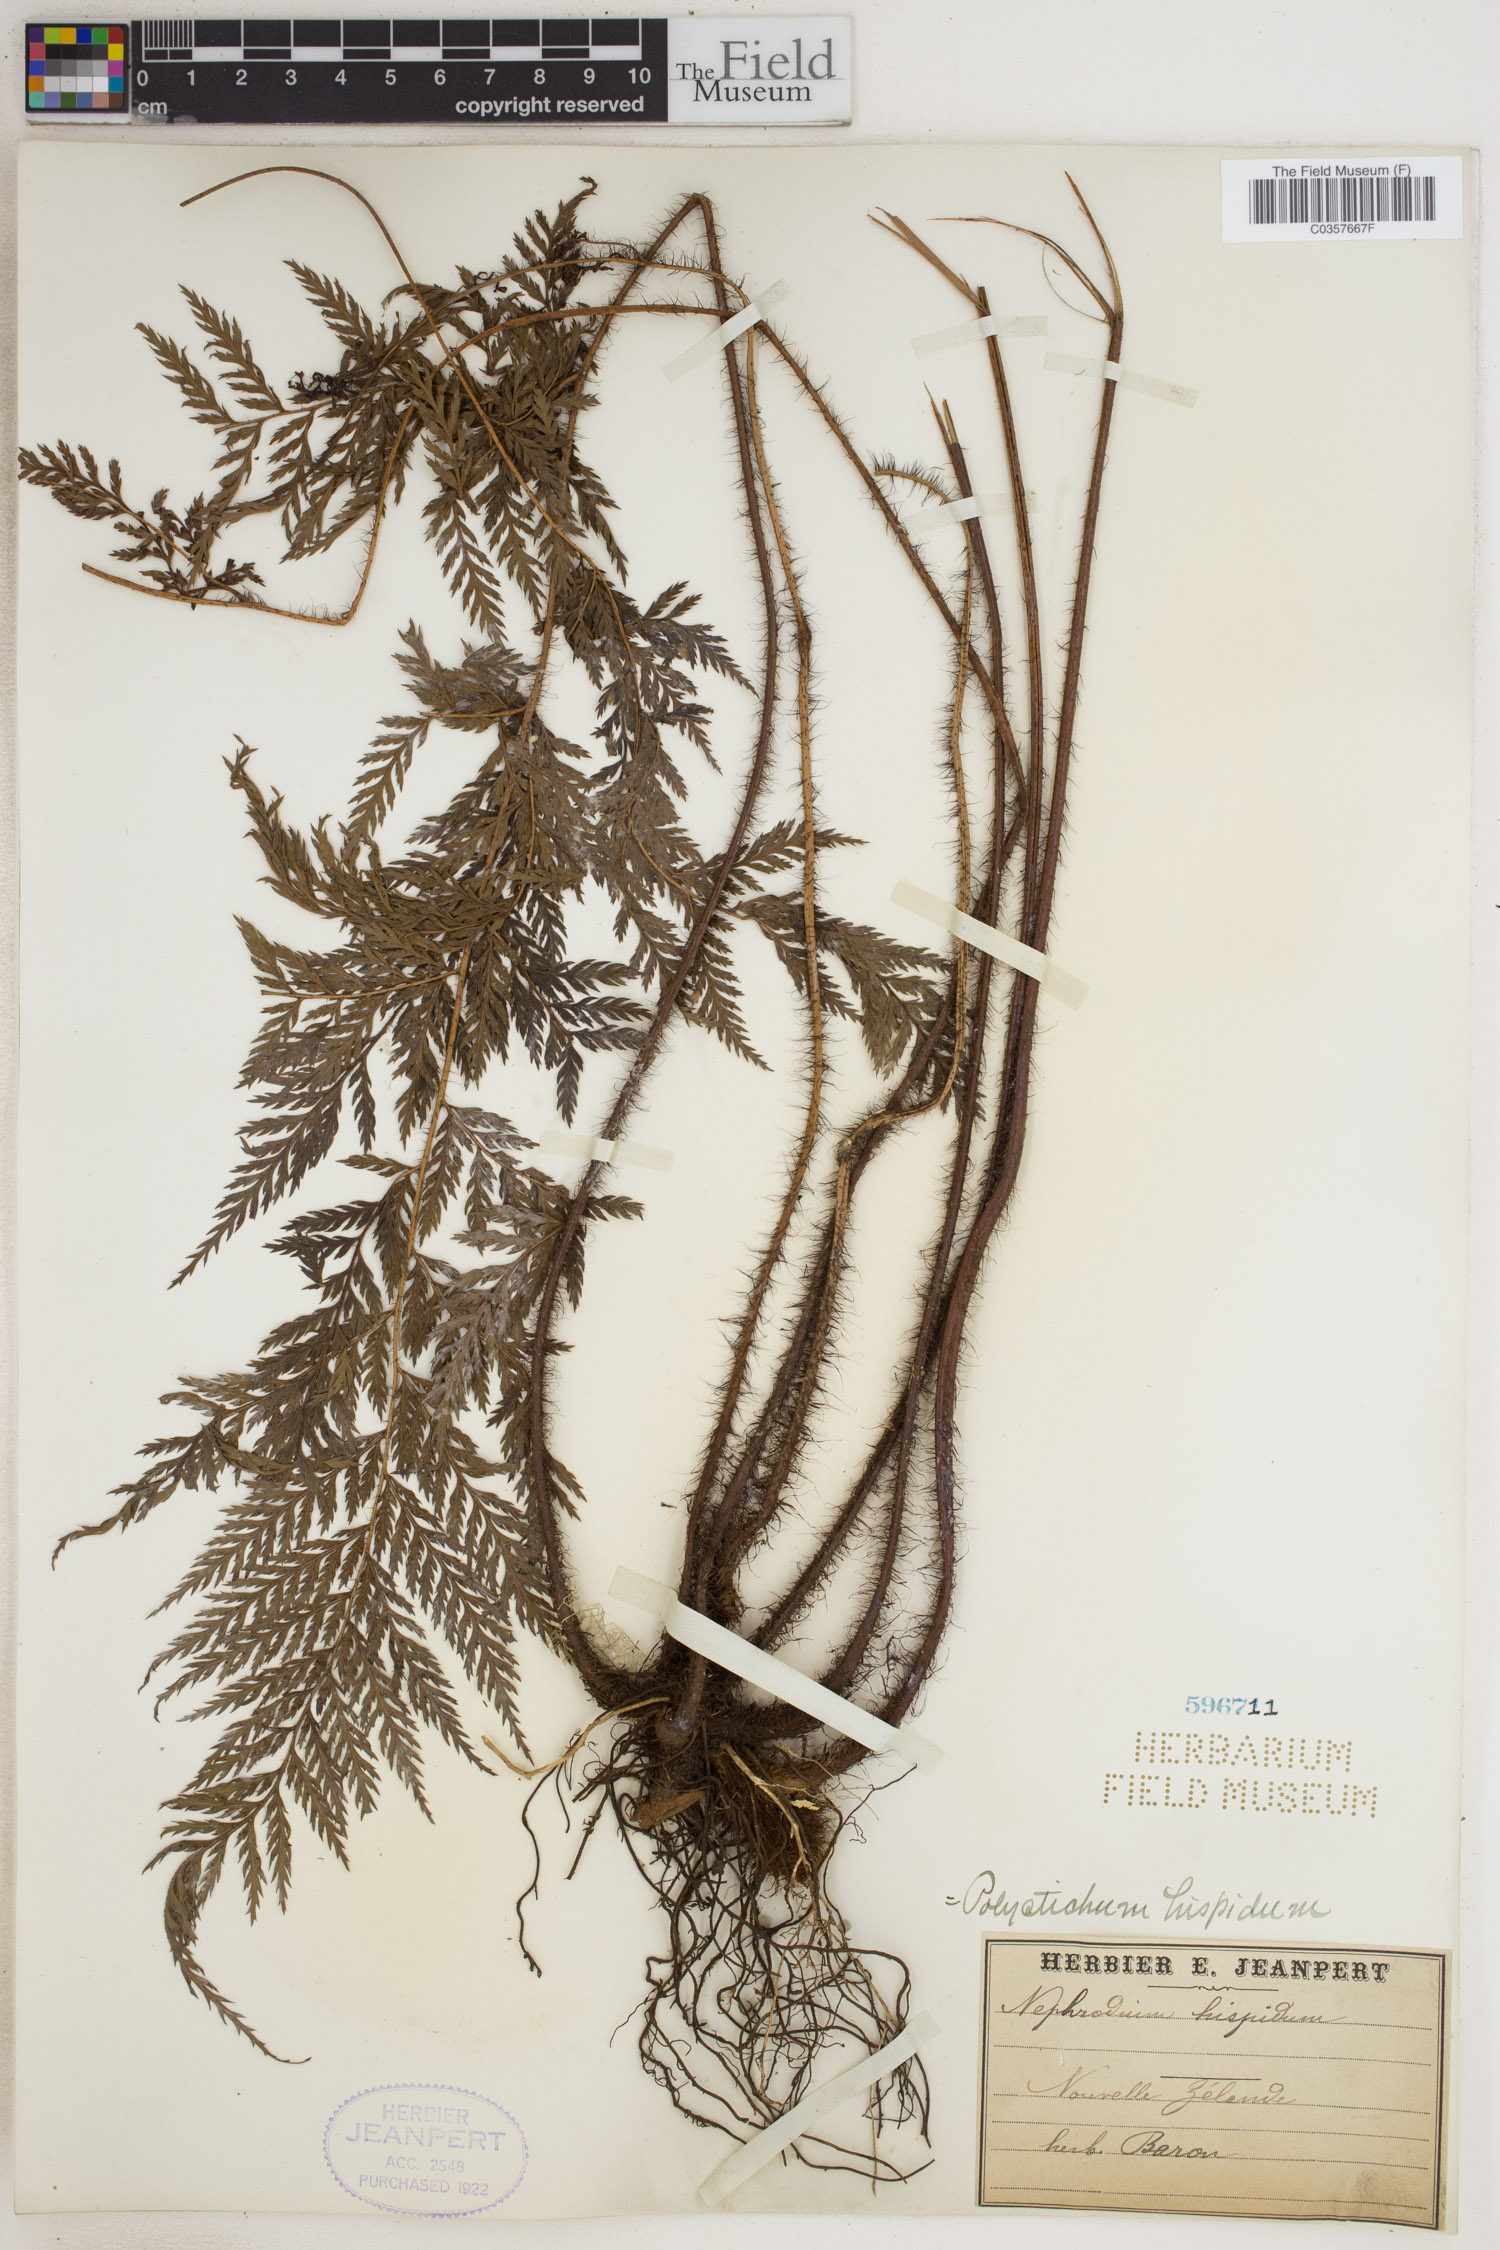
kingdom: Plantae
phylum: Tracheophyta
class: Polypodiopsida
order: Polypodiales
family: Dryopteridaceae
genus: Lastreopsis
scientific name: Lastreopsis hispida
